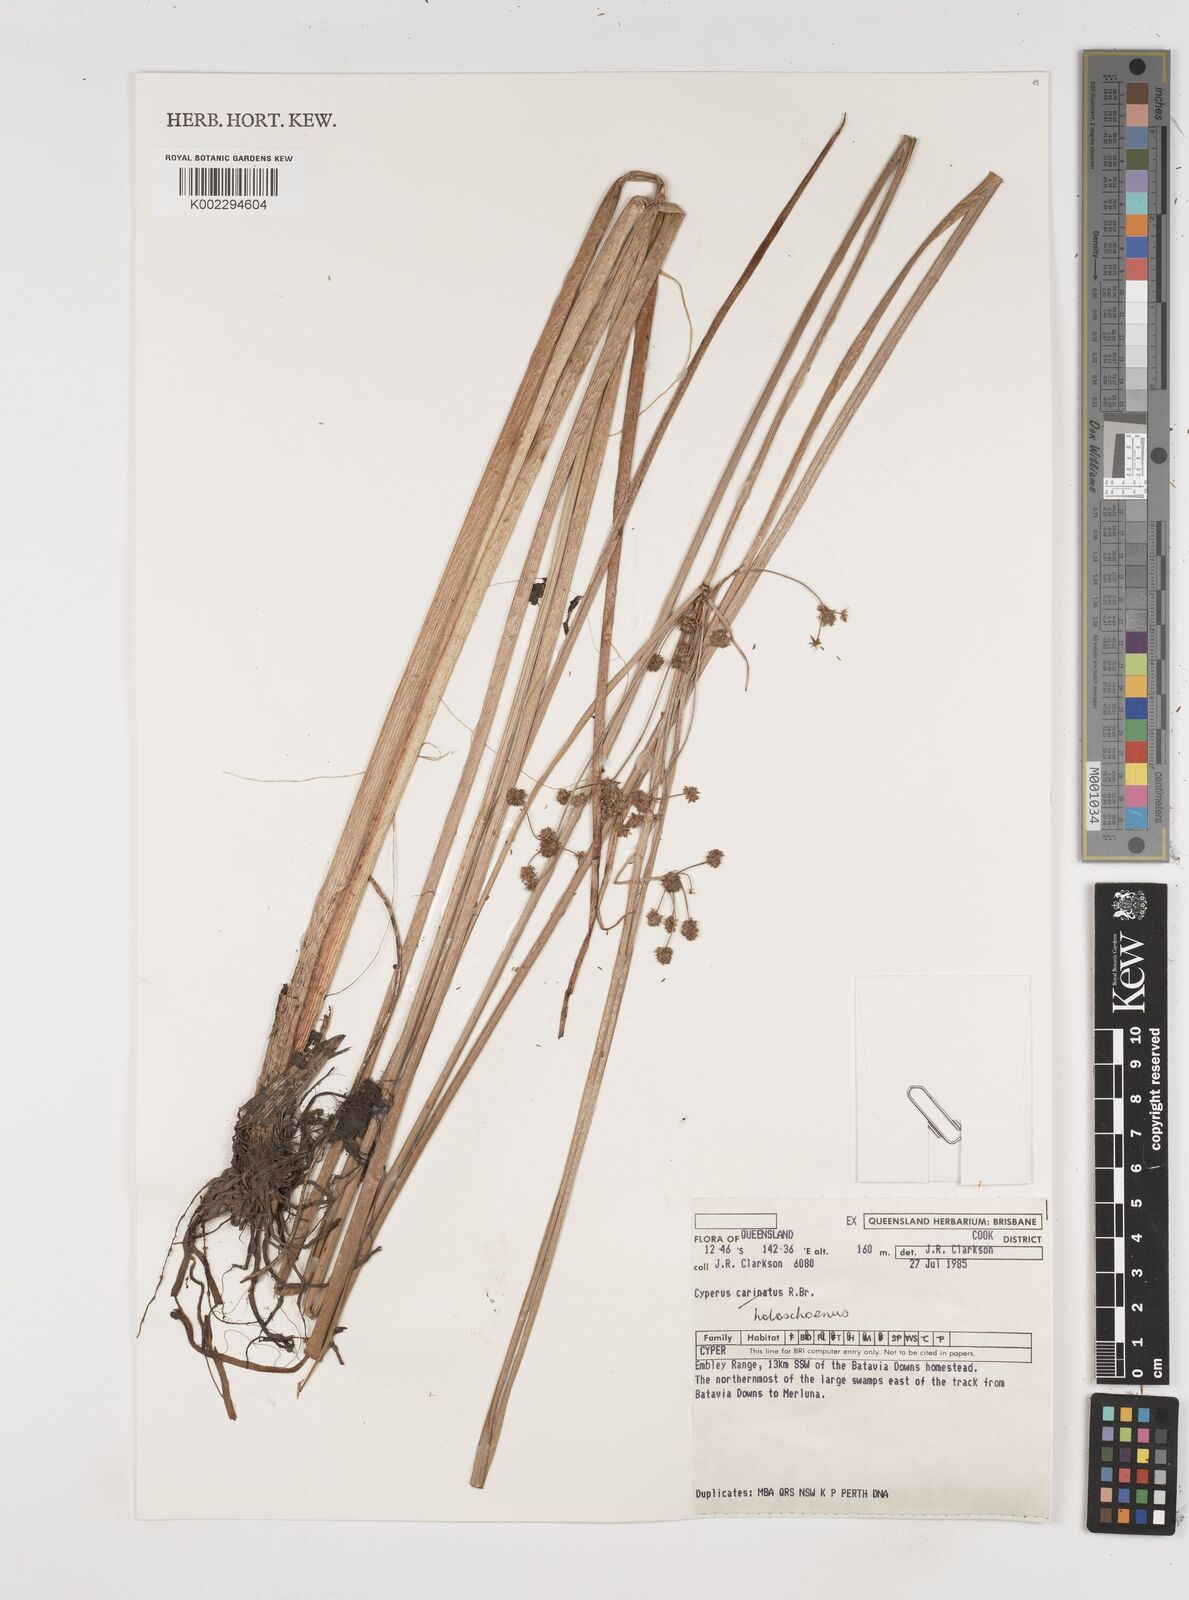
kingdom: Plantae
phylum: Tracheophyta
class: Liliopsida
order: Poales
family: Cyperaceae
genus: Cyperus
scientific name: Cyperus holoschoenus
